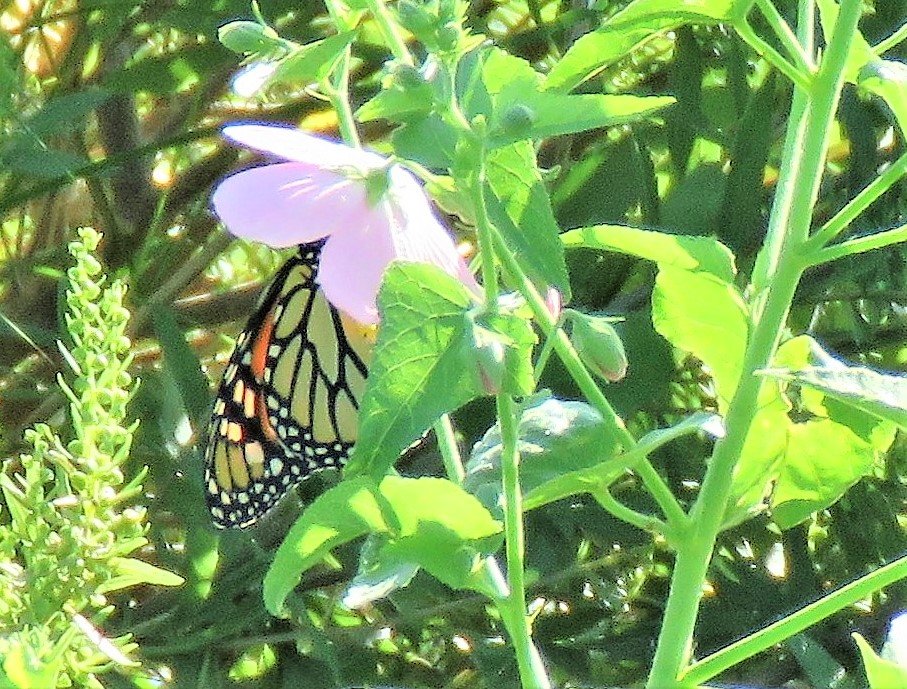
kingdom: Animalia
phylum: Arthropoda
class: Insecta
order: Lepidoptera
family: Nymphalidae
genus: Danaus
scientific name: Danaus plexippus
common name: Monarch
